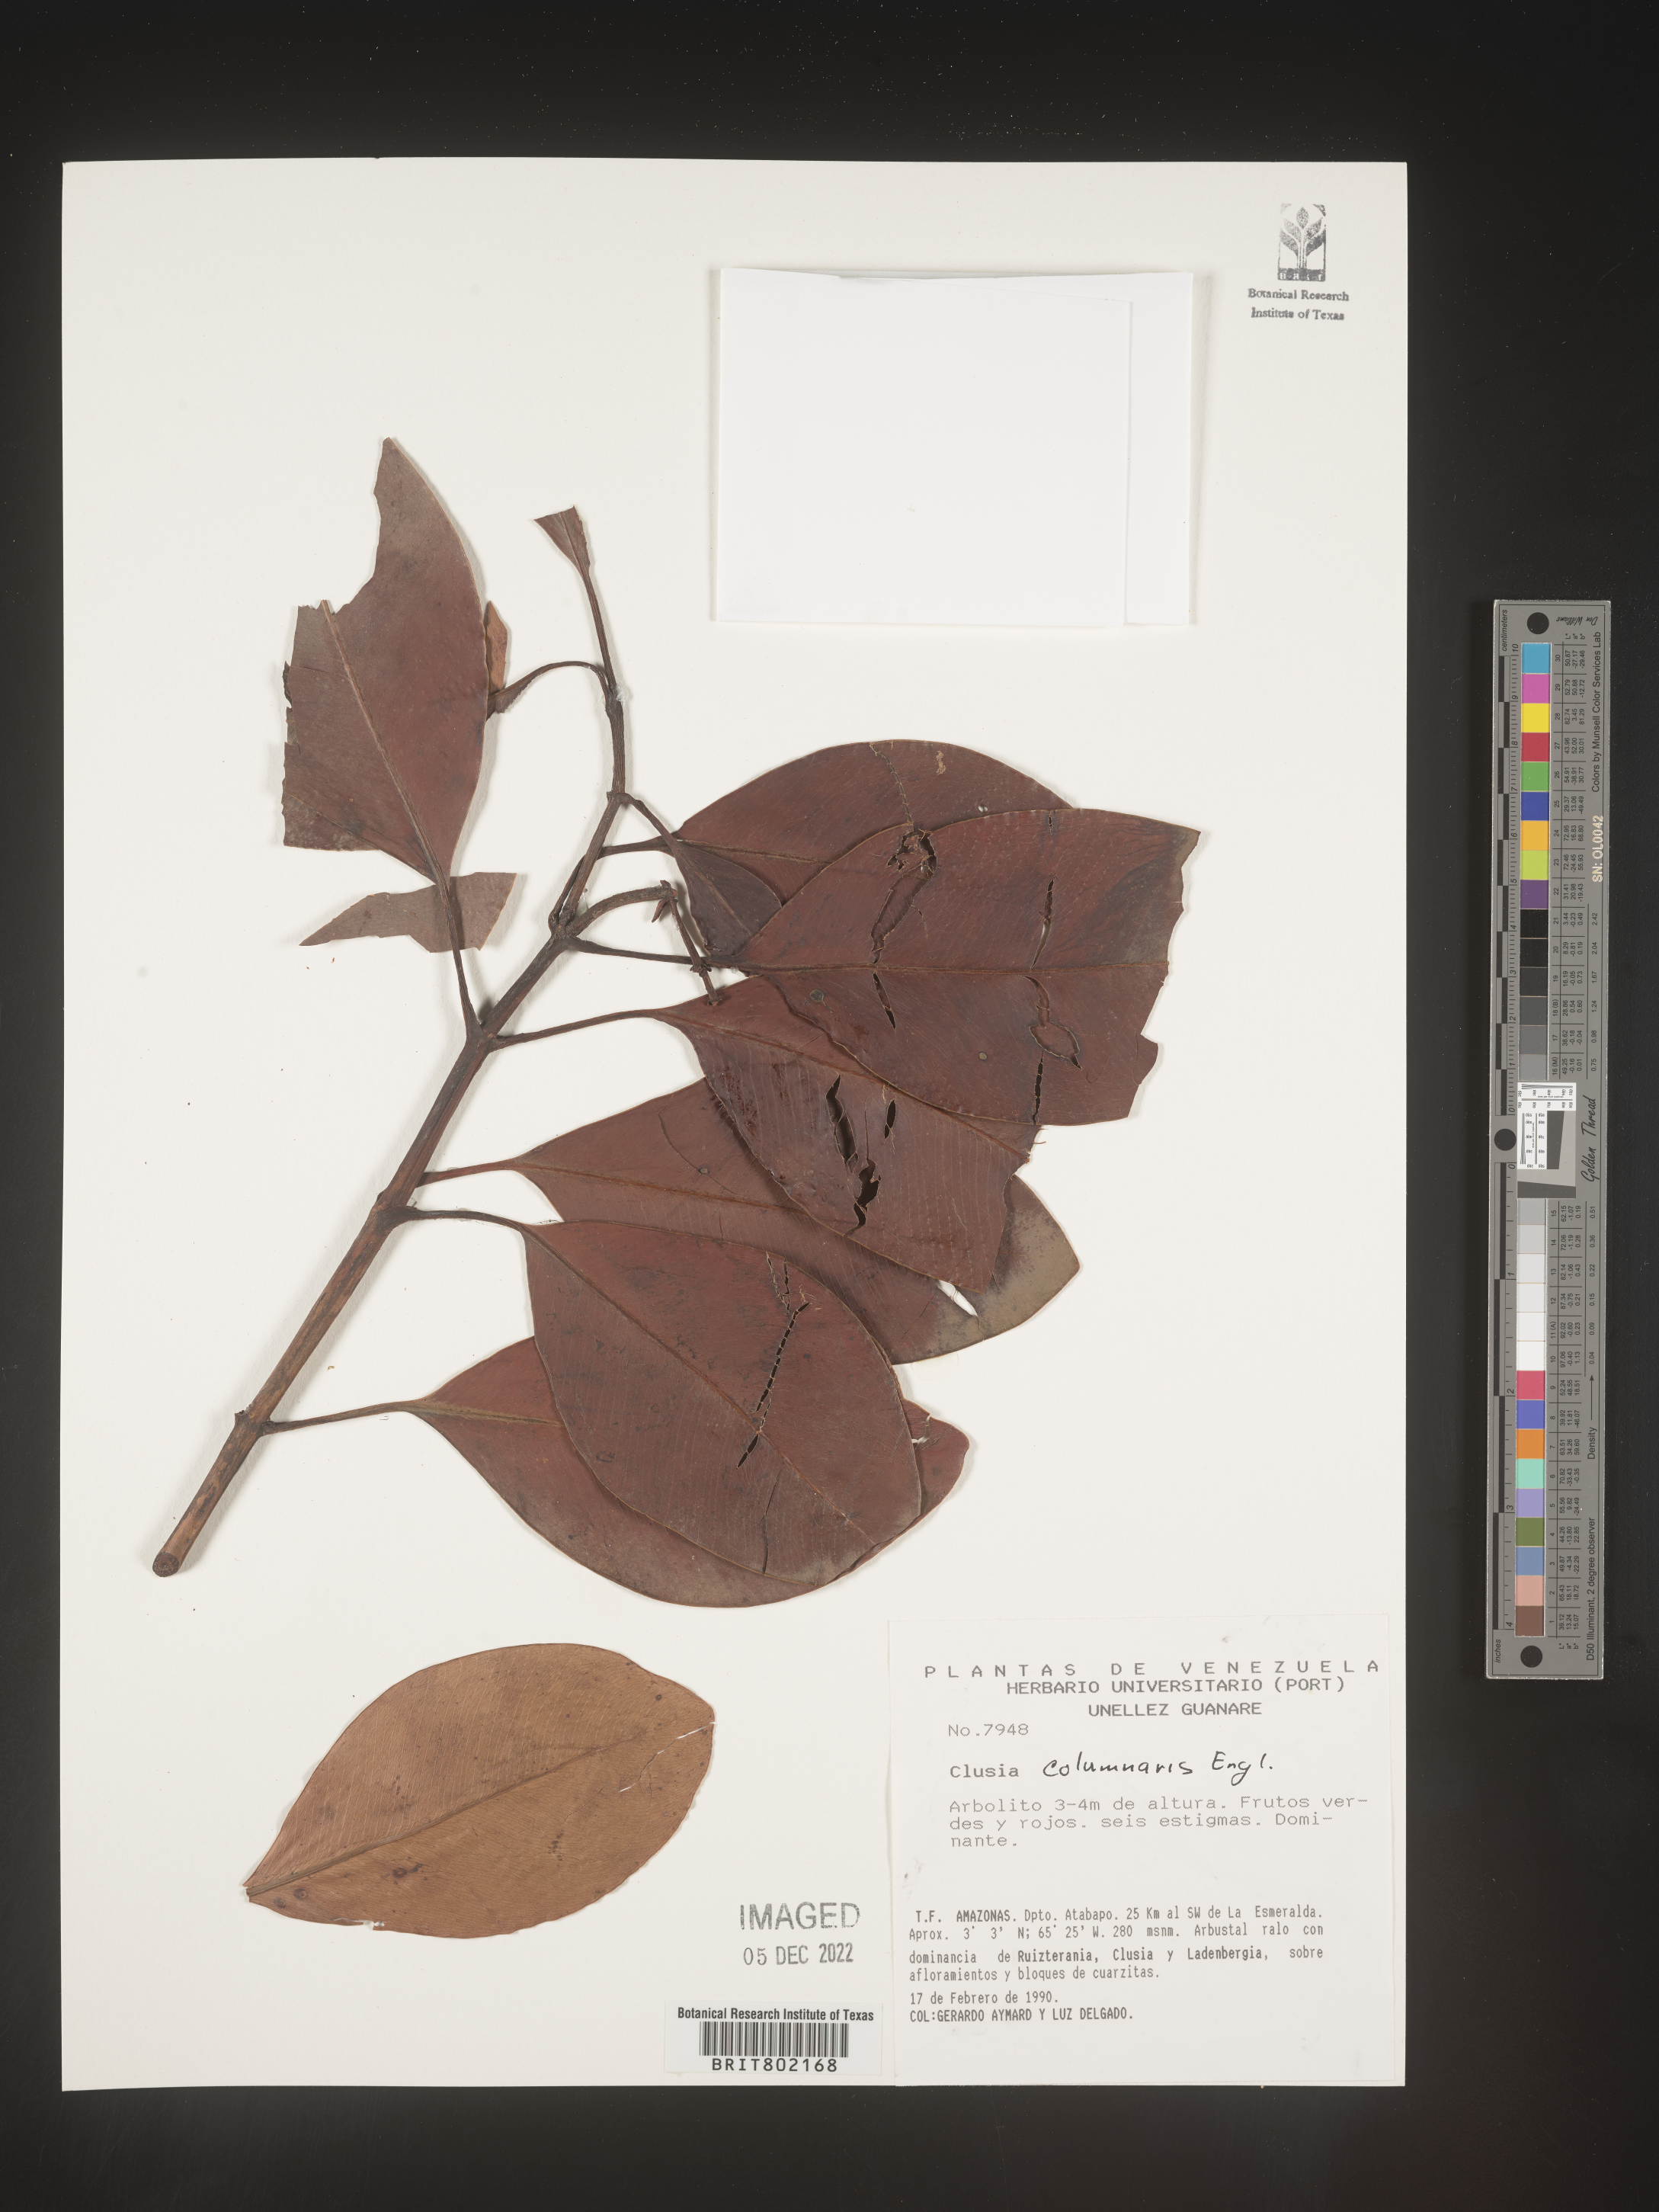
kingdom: Plantae
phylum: Tracheophyta
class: Magnoliopsida
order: Malpighiales
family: Clusiaceae
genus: Clusia
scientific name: Clusia columnaris
